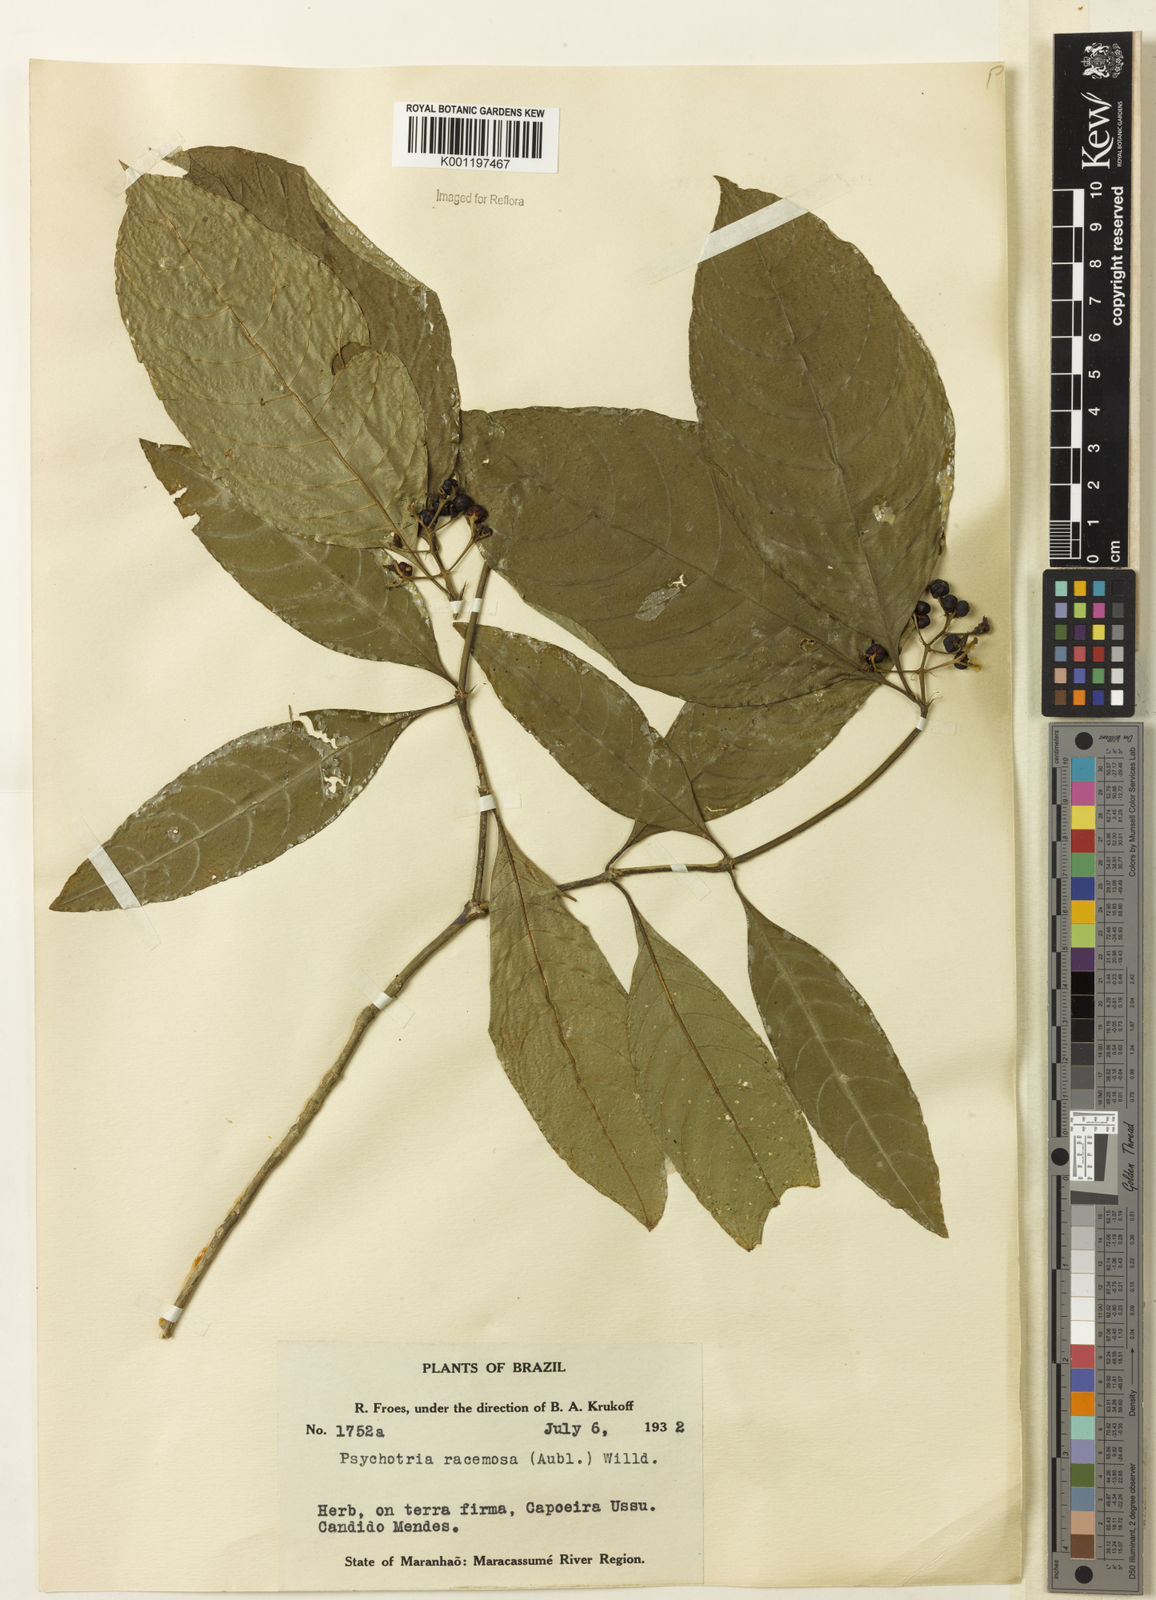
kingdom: Plantae
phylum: Tracheophyta
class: Magnoliopsida
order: Gentianales
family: Rubiaceae
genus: Palicourea
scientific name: Palicourea racemosa
